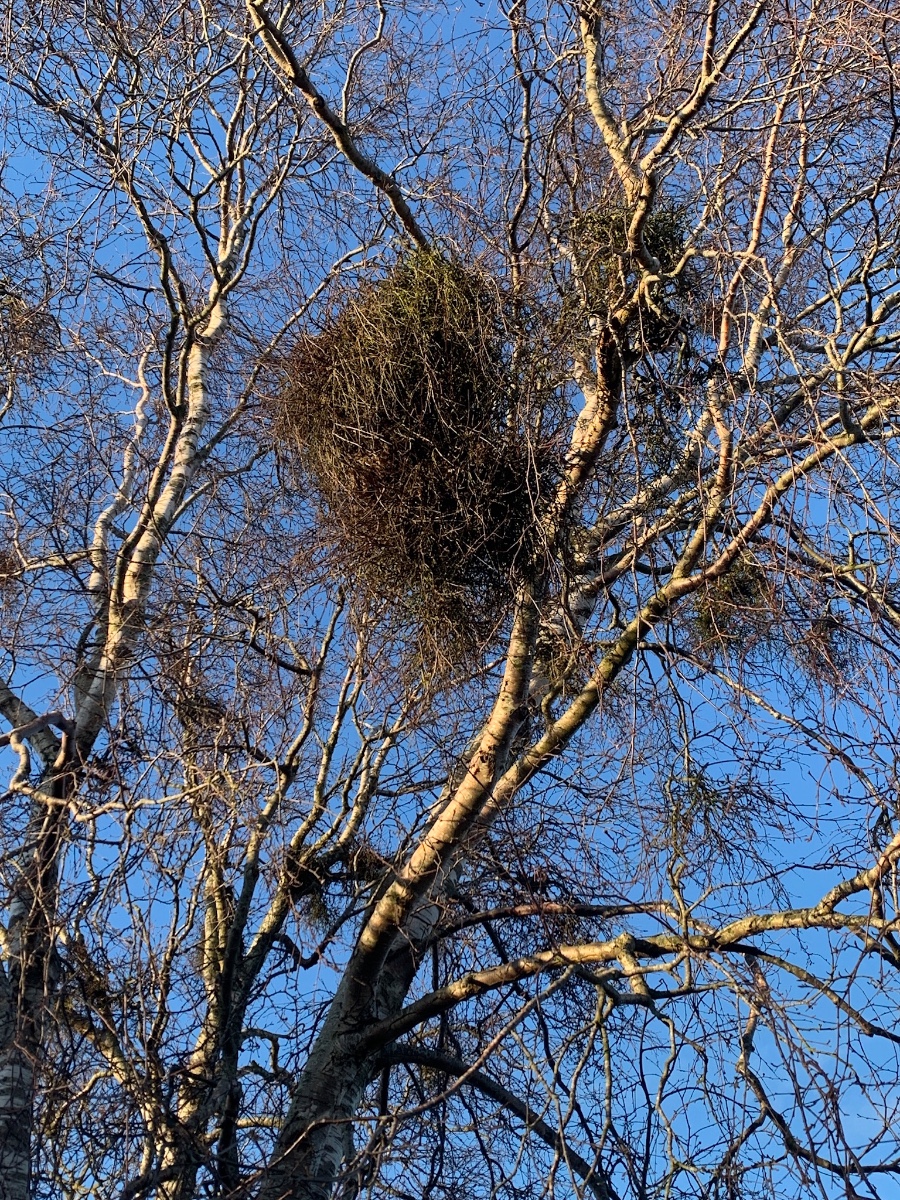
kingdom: Fungi
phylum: Ascomycota
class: Taphrinomycetes
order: Taphrinales
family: Taphrinaceae
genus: Taphrina
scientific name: Taphrina betulina
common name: hekse-sækdug
